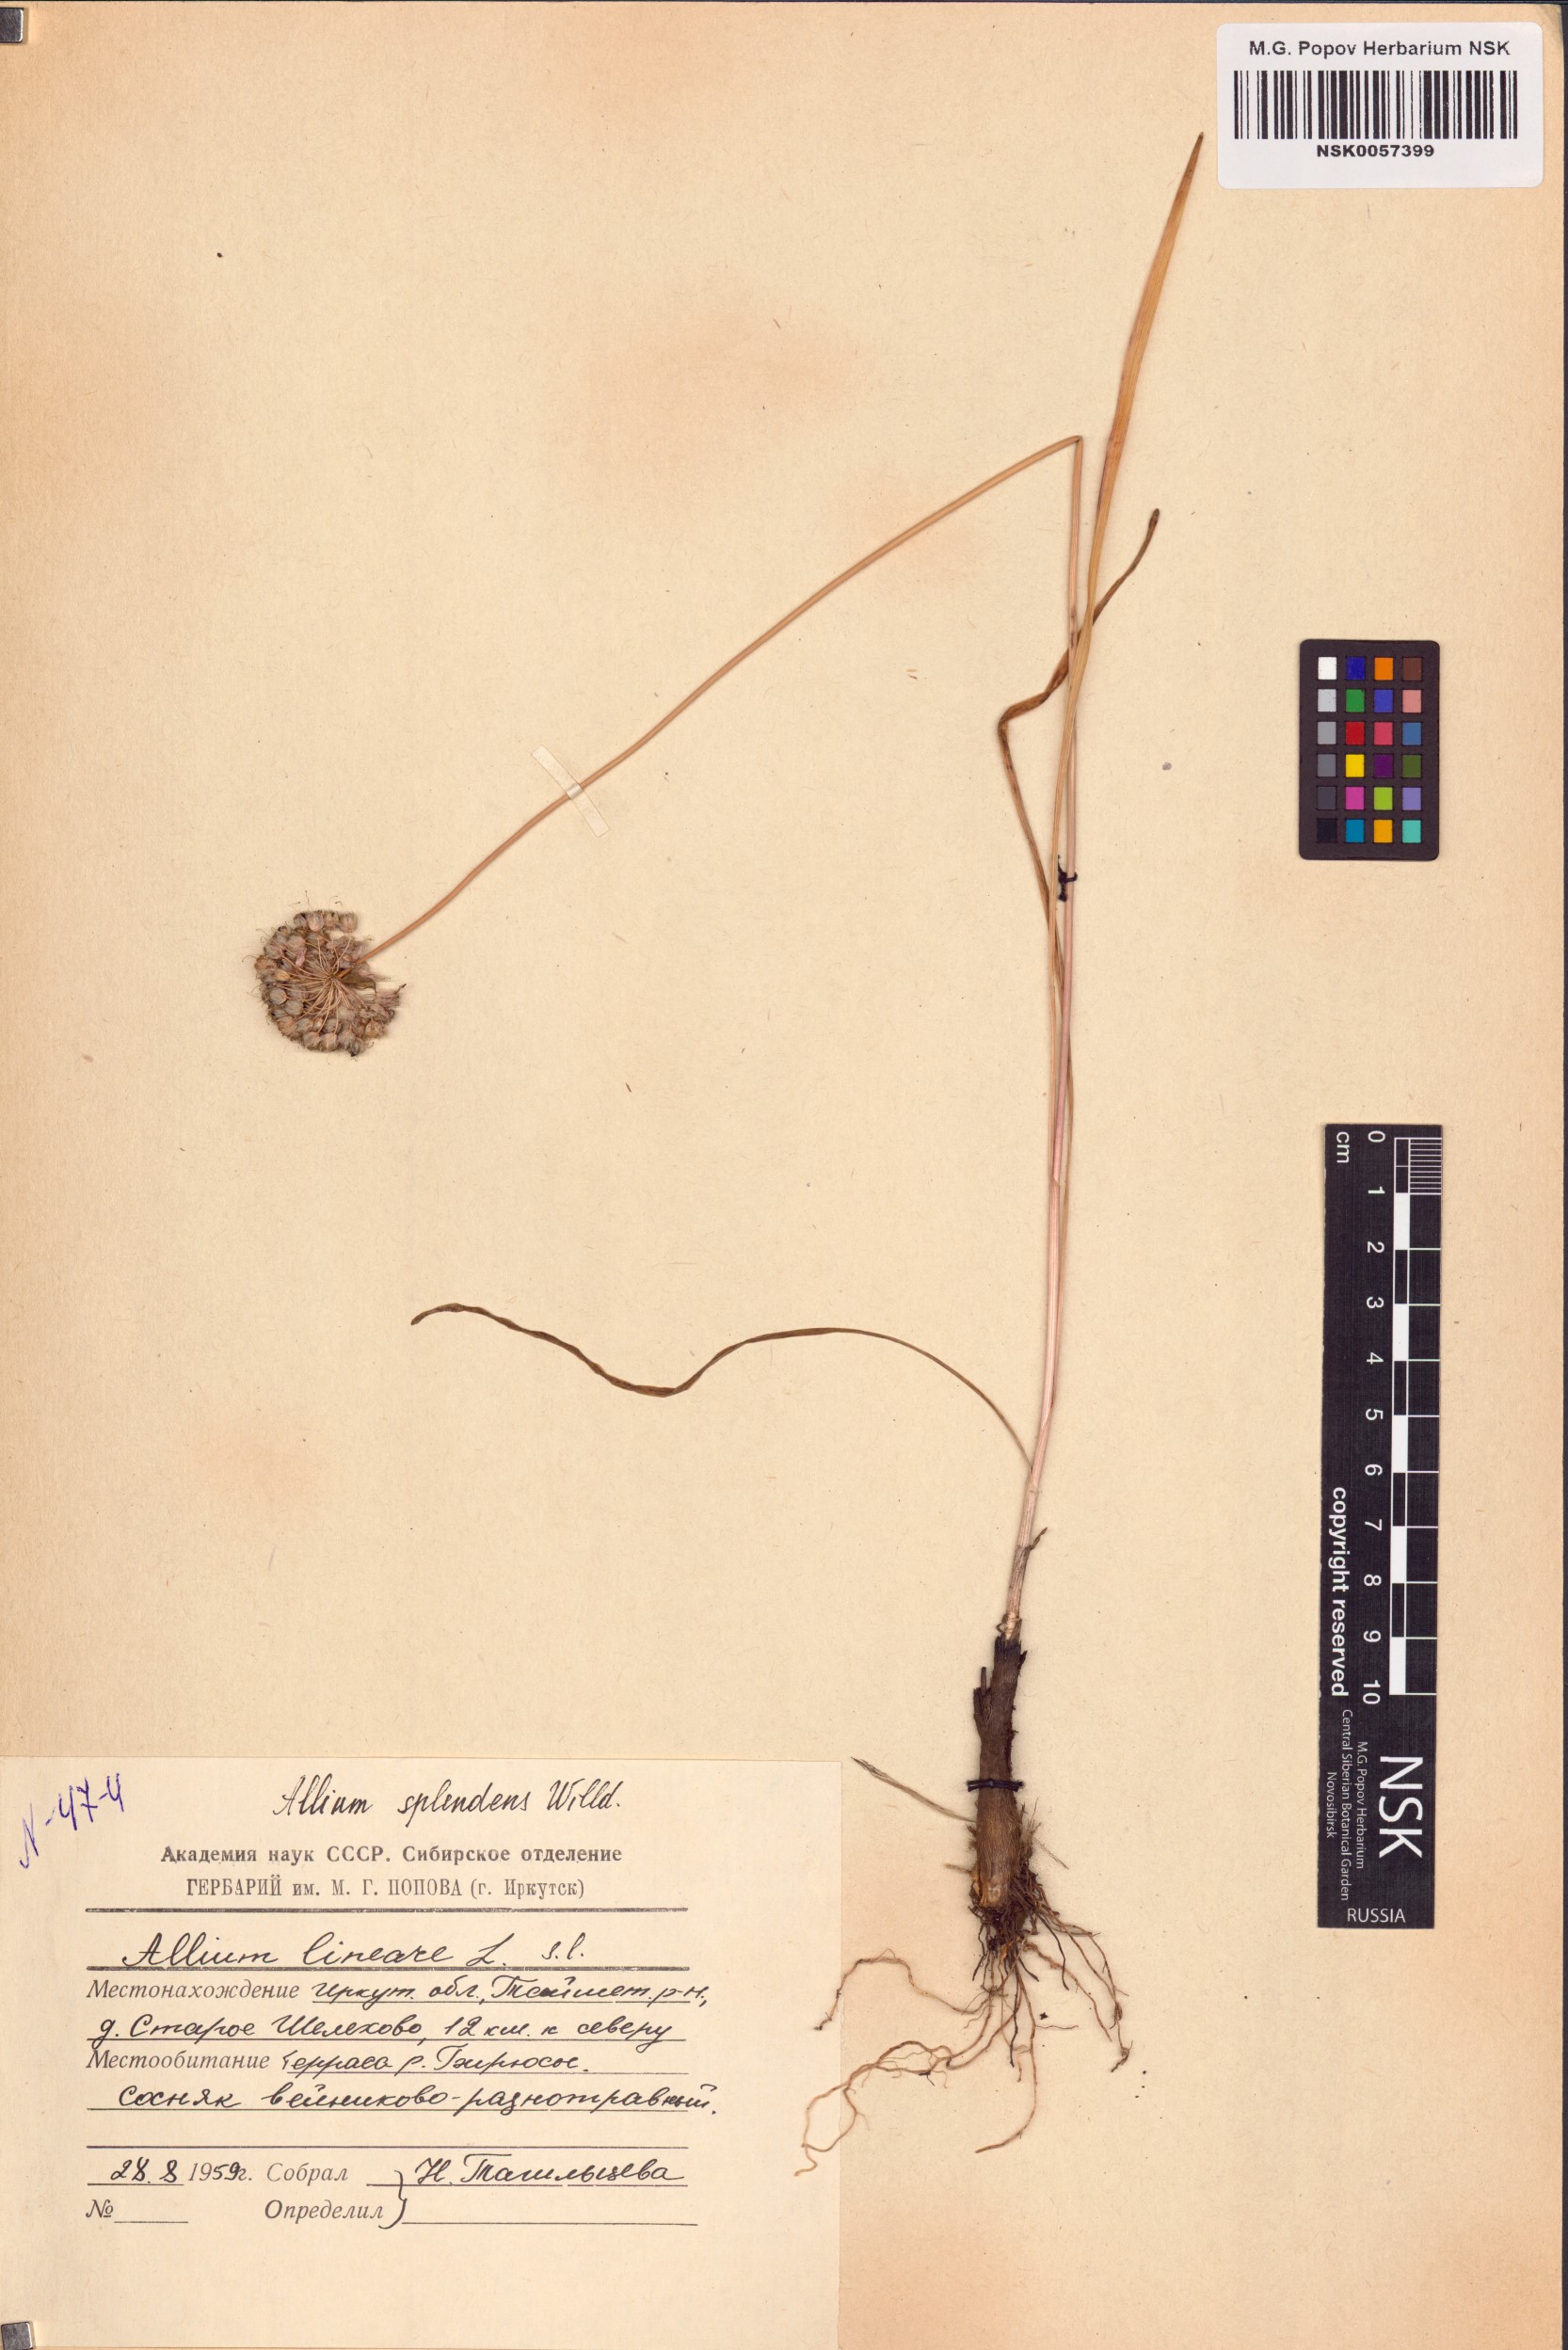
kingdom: Plantae
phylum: Tracheophyta
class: Liliopsida
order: Asparagales
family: Amaryllidaceae
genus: Allium
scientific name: Allium splendens
